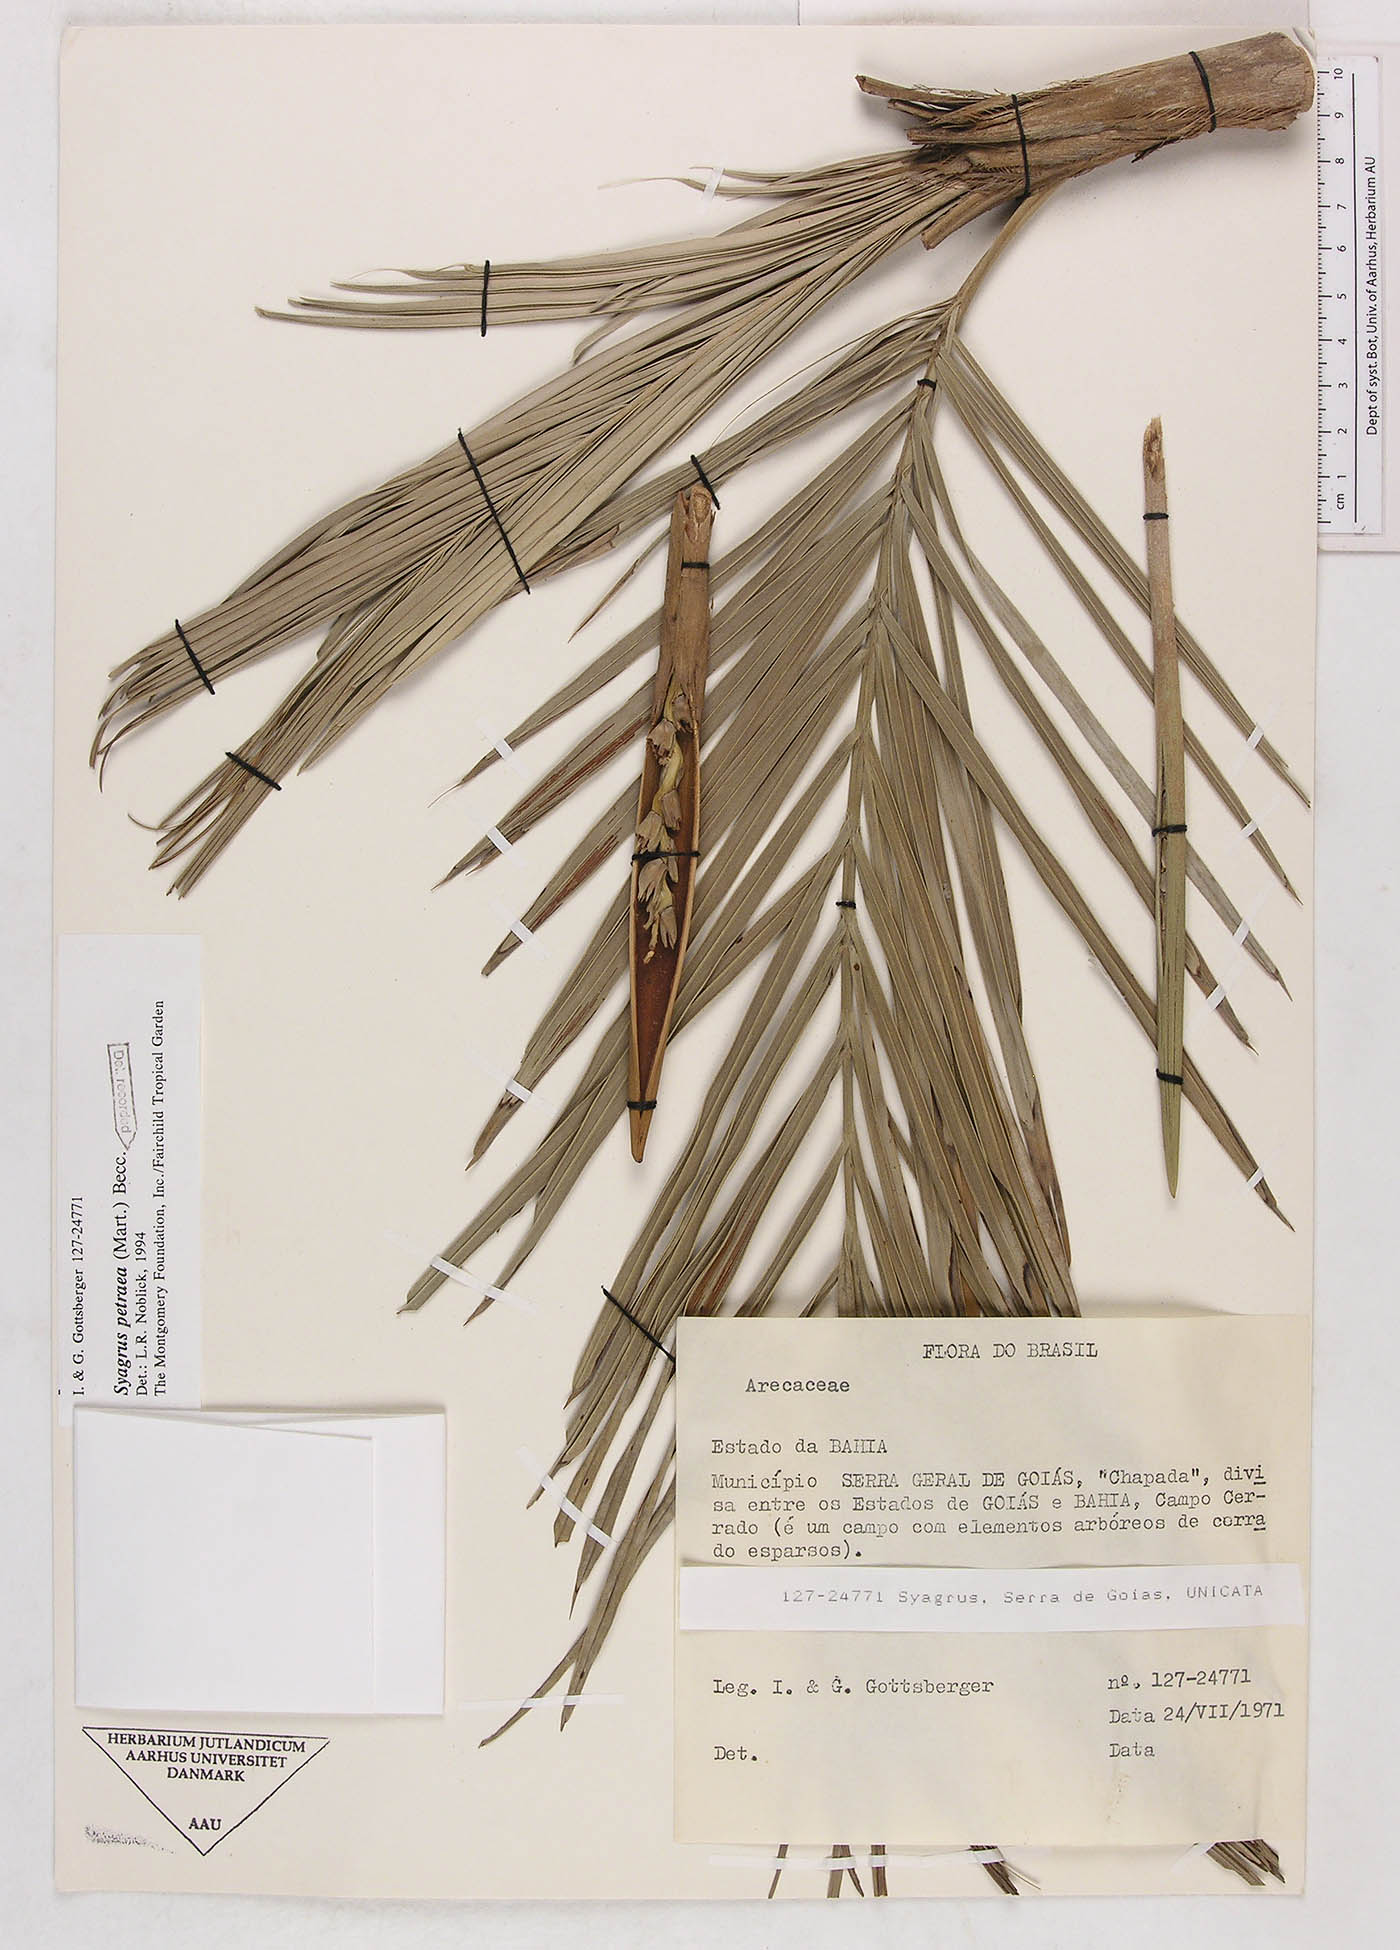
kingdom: Plantae
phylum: Tracheophyta
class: Liliopsida
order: Arecales
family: Arecaceae
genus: Syagrus
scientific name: Syagrus petraea
